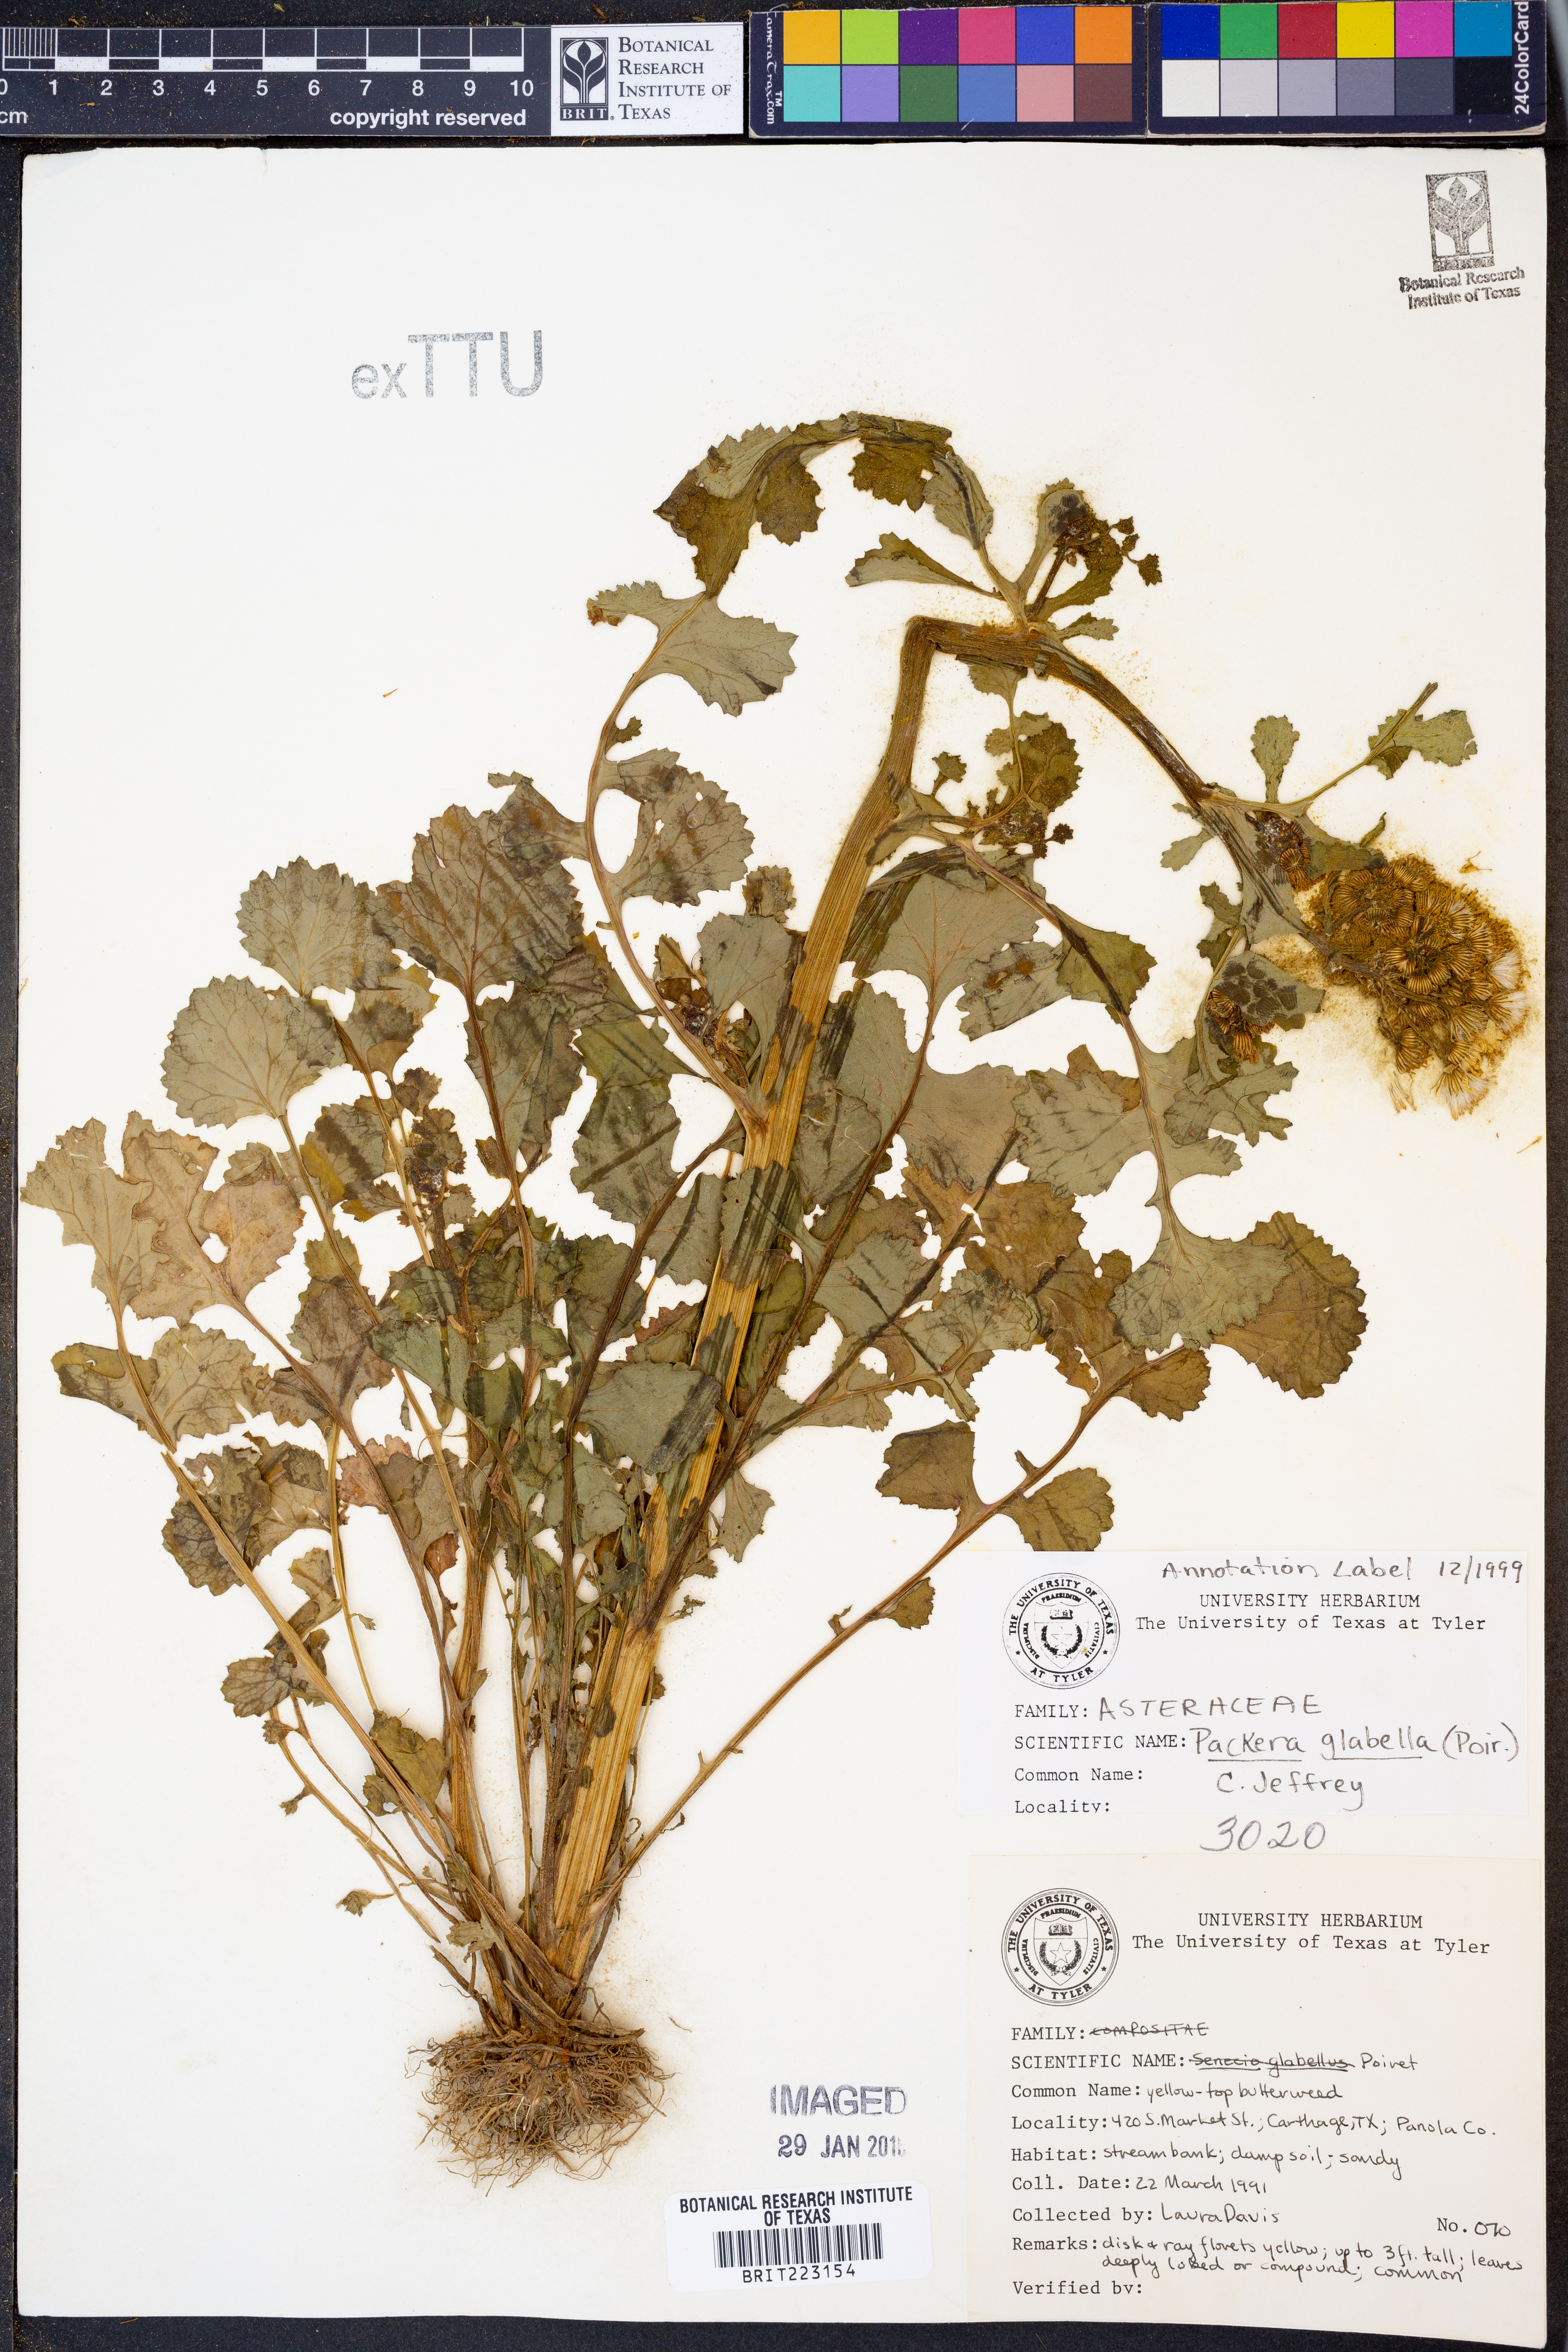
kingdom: Plantae
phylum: Tracheophyta
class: Magnoliopsida
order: Asterales
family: Asteraceae
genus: Packera
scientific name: Packera glabella
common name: Butterweed
